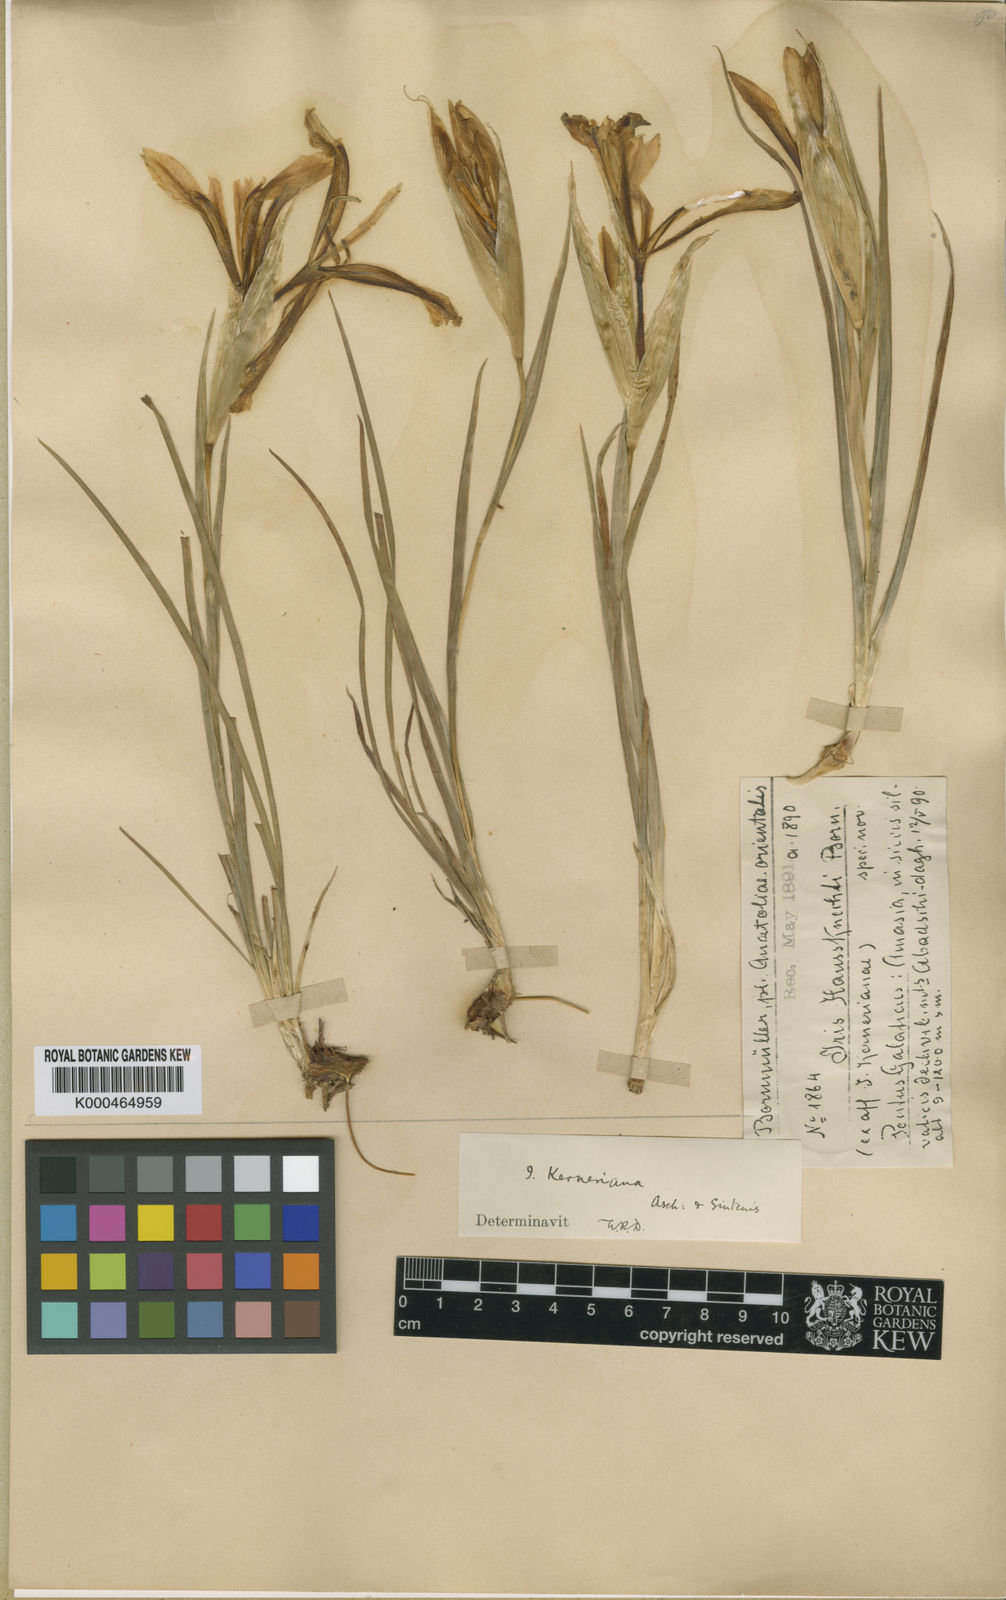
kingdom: Plantae
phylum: Tracheophyta
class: Liliopsida
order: Asparagales
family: Iridaceae
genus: Iris
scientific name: Iris haussknechtii
